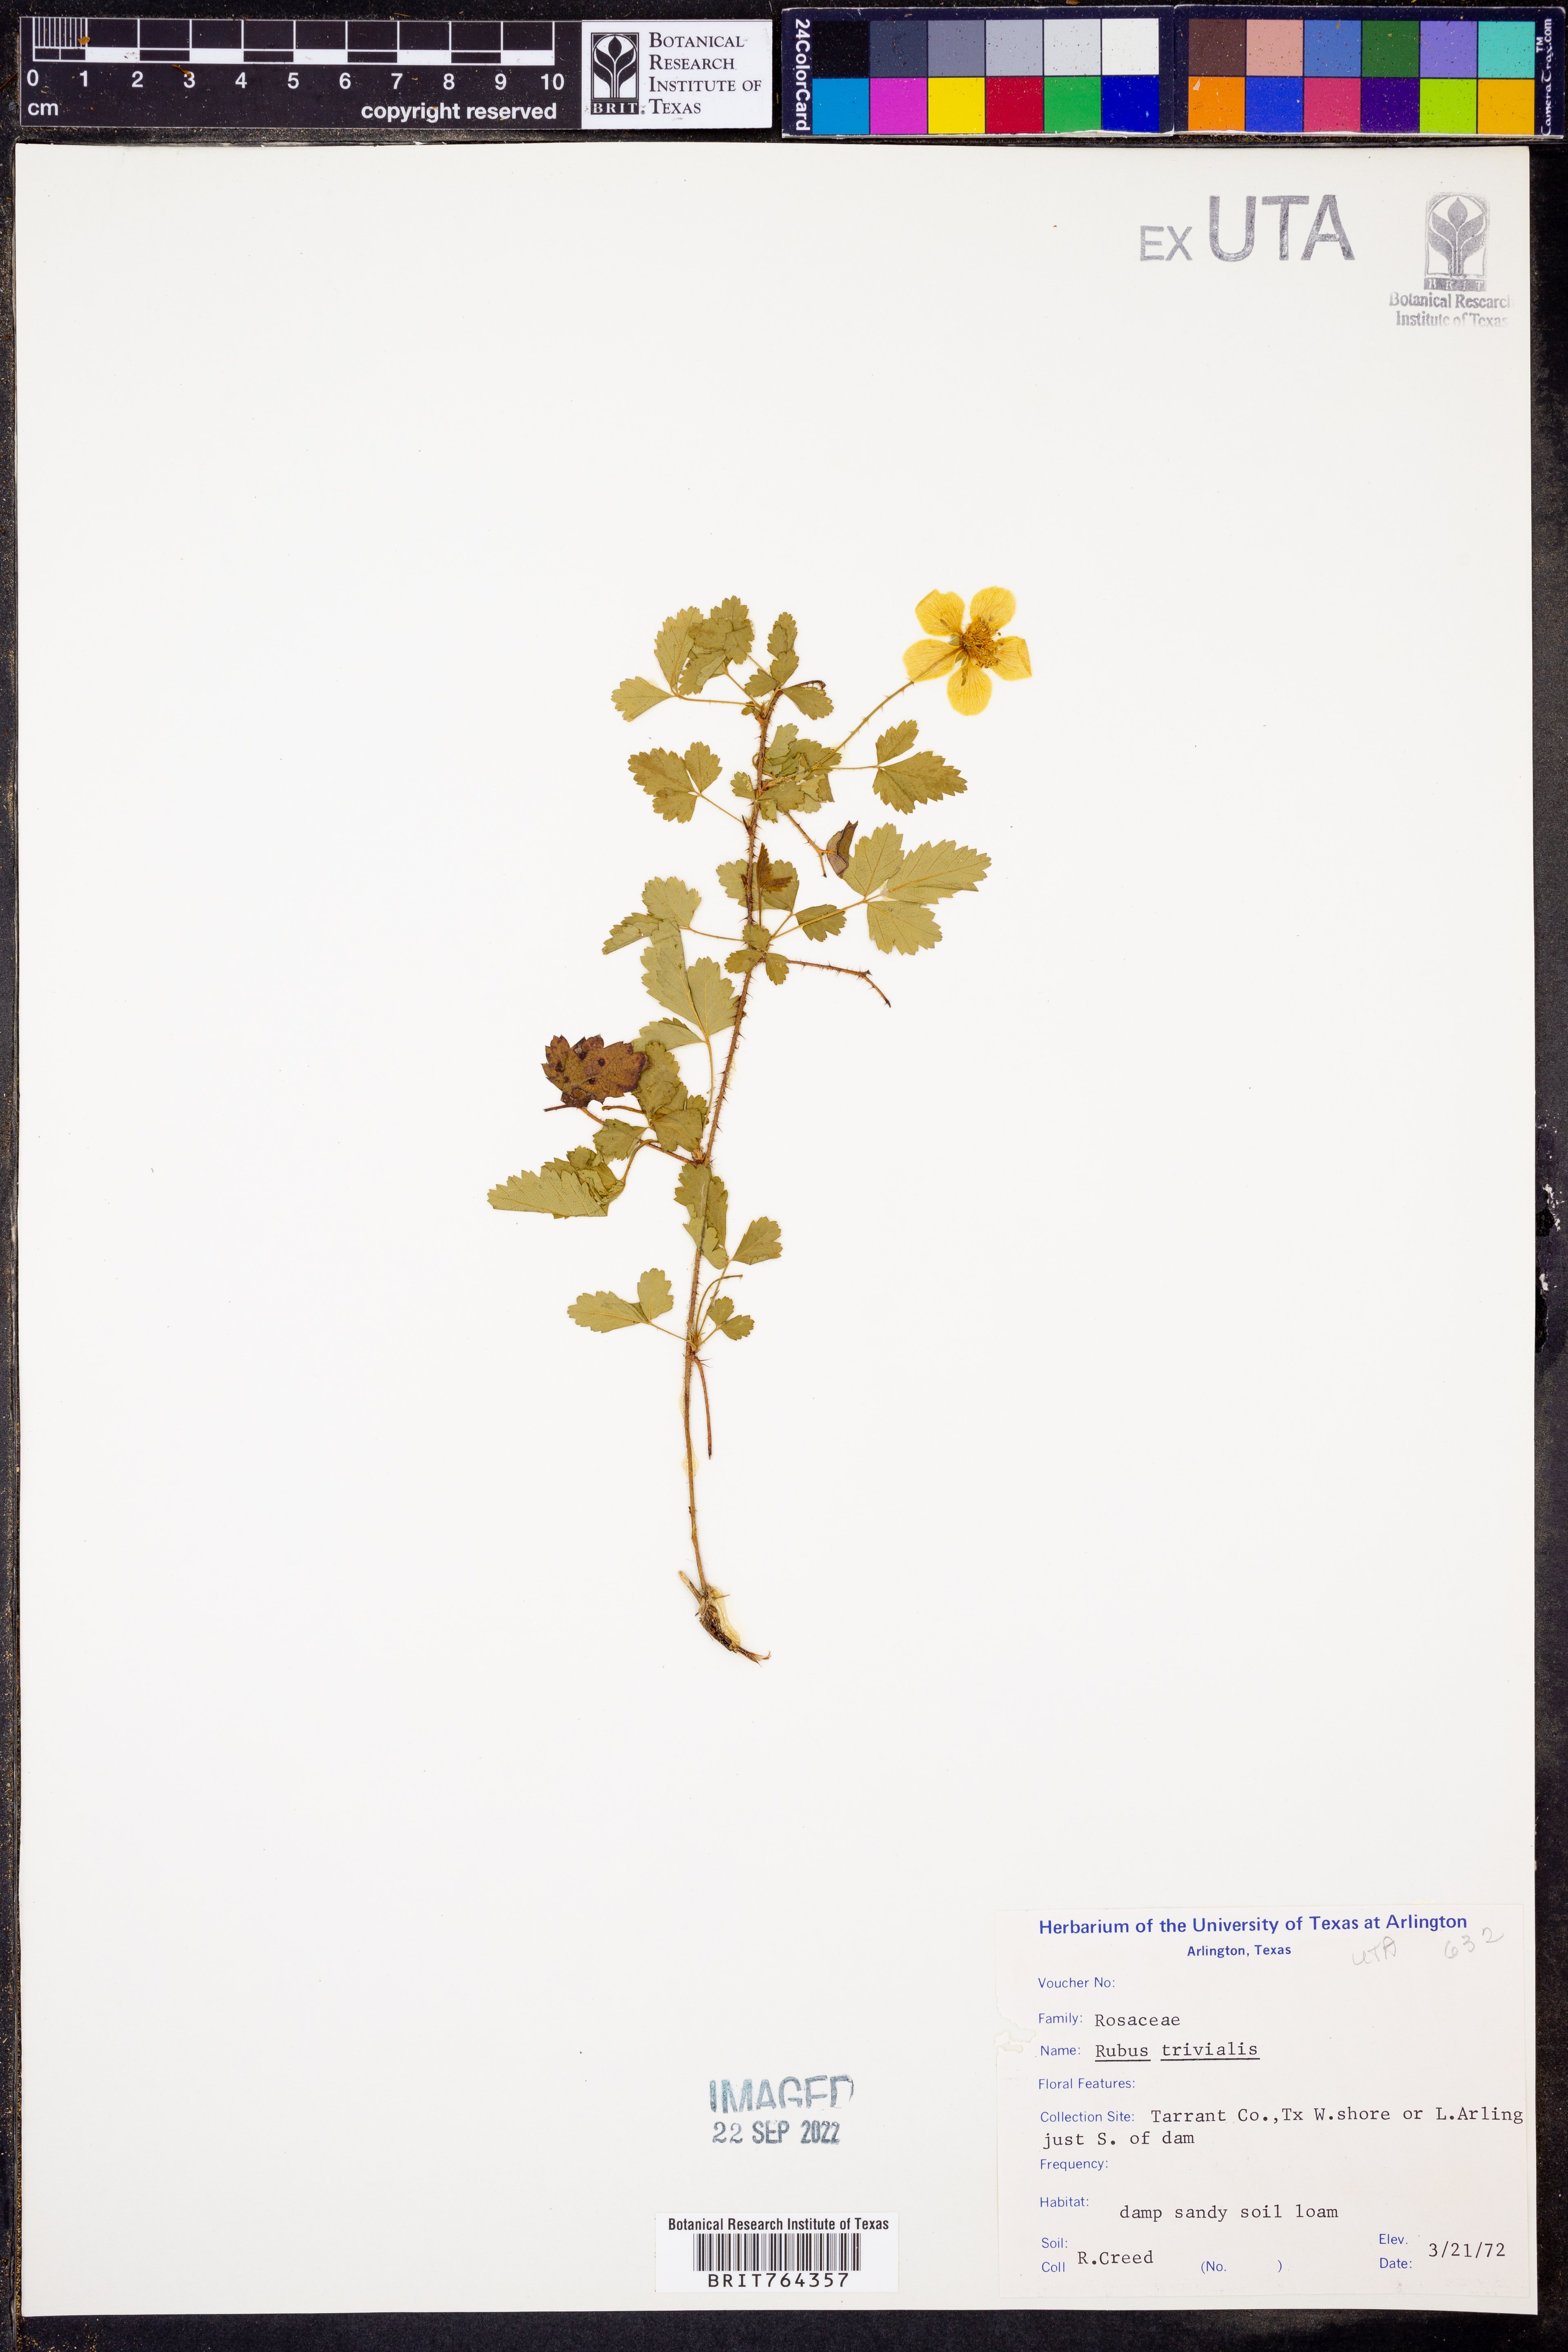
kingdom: Plantae
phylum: Tracheophyta
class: Magnoliopsida
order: Rosales
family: Rosaceae
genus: Rubus
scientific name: Rubus trivialis
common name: Southern dewberry
